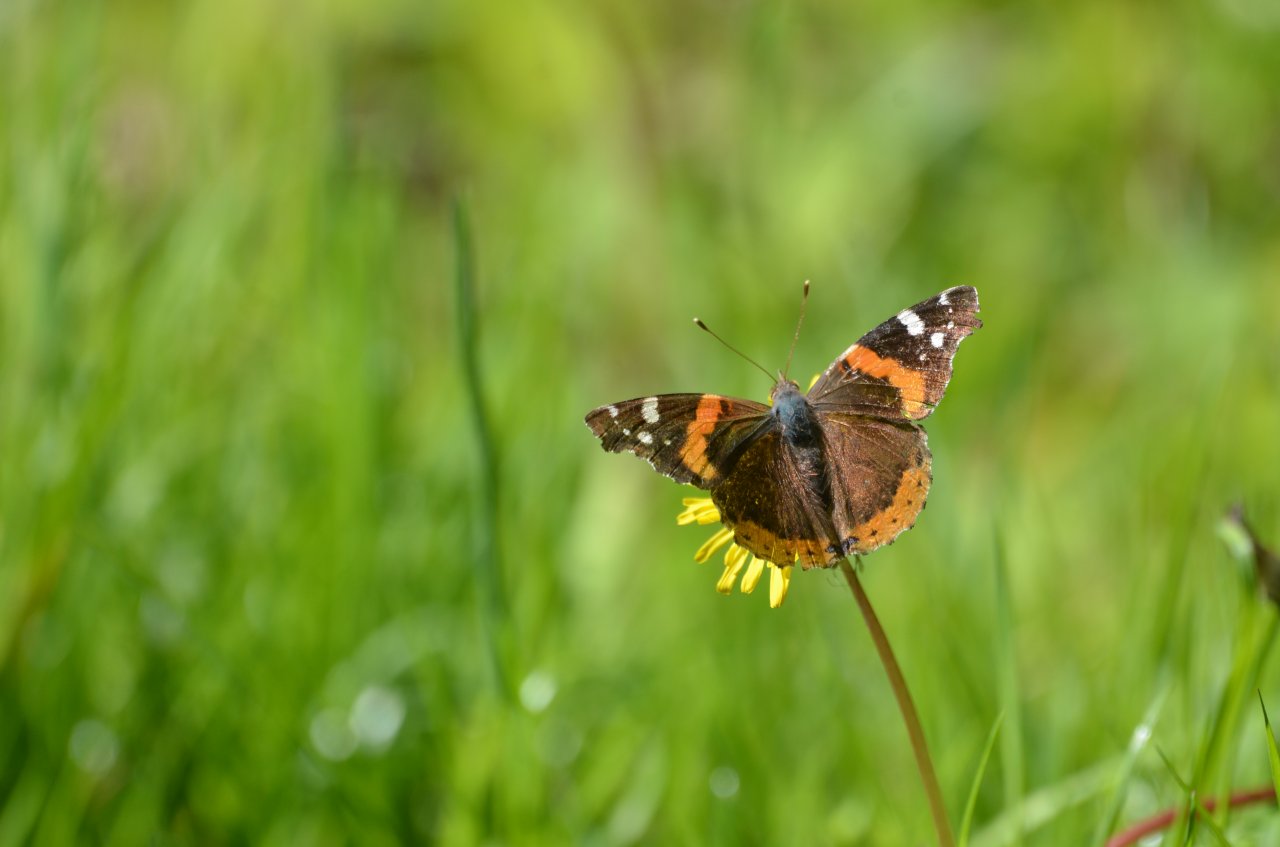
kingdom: Animalia
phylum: Arthropoda
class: Insecta
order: Lepidoptera
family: Nymphalidae
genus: Vanessa
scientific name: Vanessa atalanta
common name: Red Admiral
